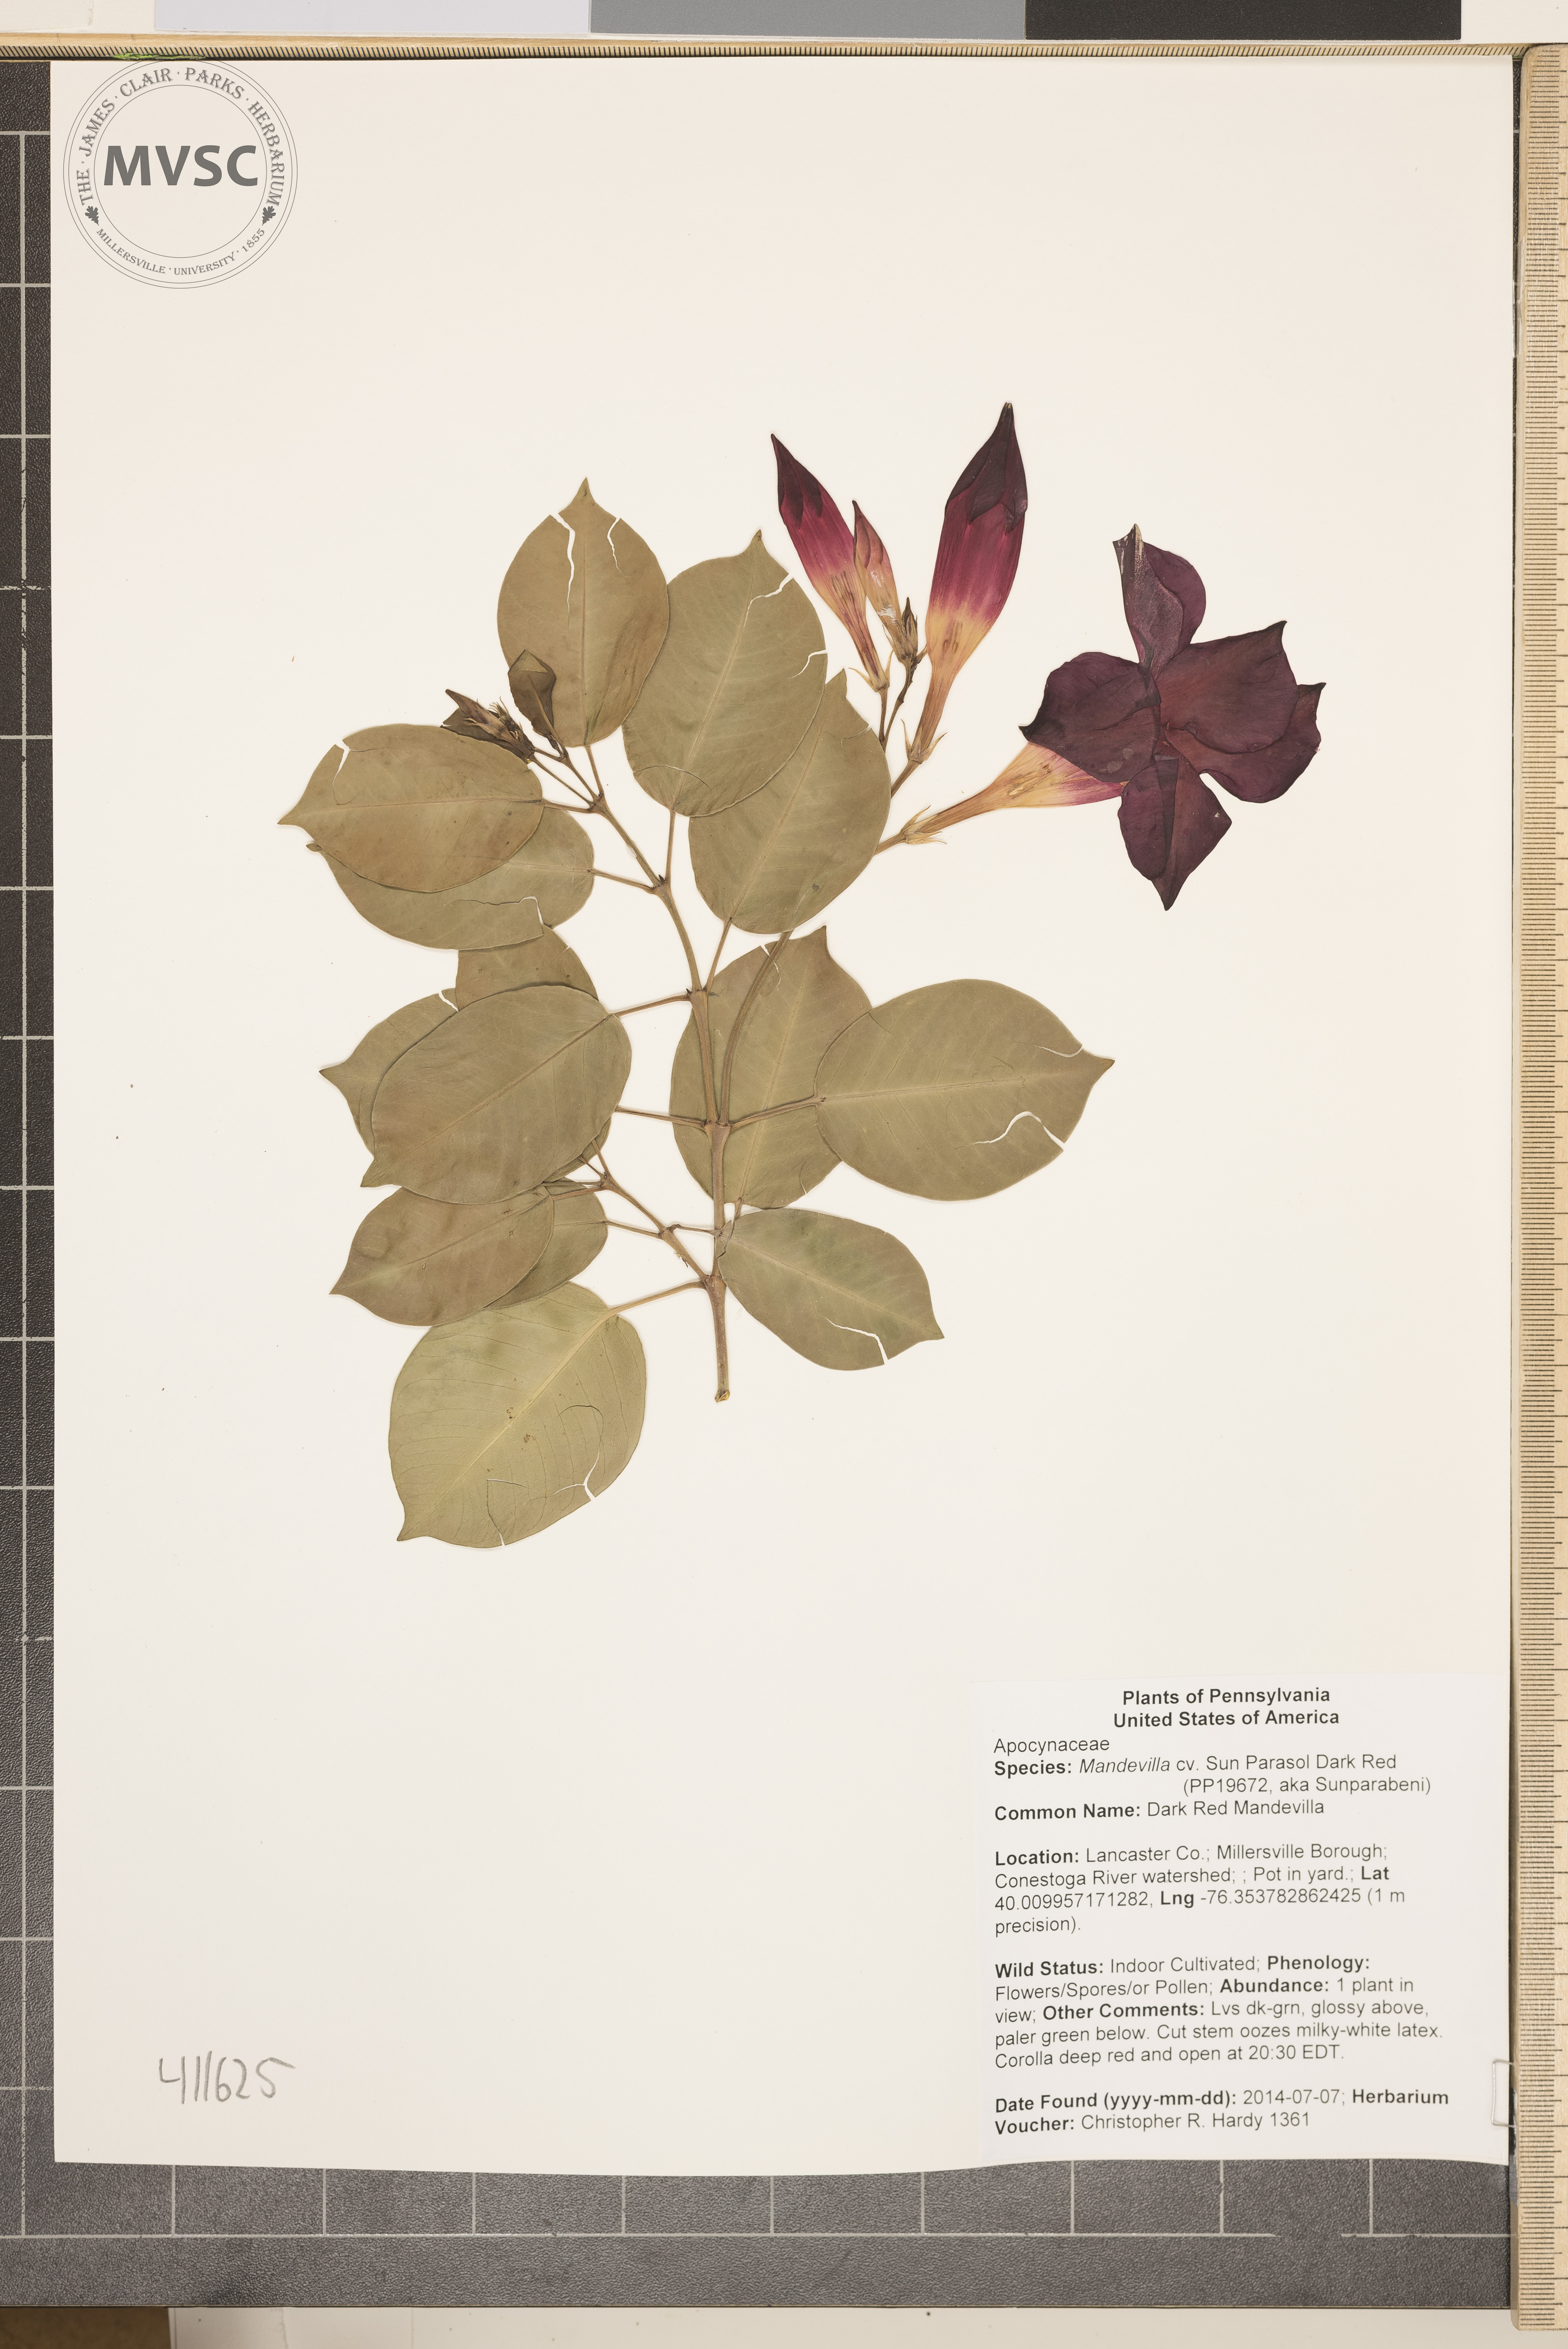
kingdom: Plantae
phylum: Tracheophyta
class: Magnoliopsida
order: Gentianales
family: Apocynaceae
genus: Mandevilla
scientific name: Mandevilla
